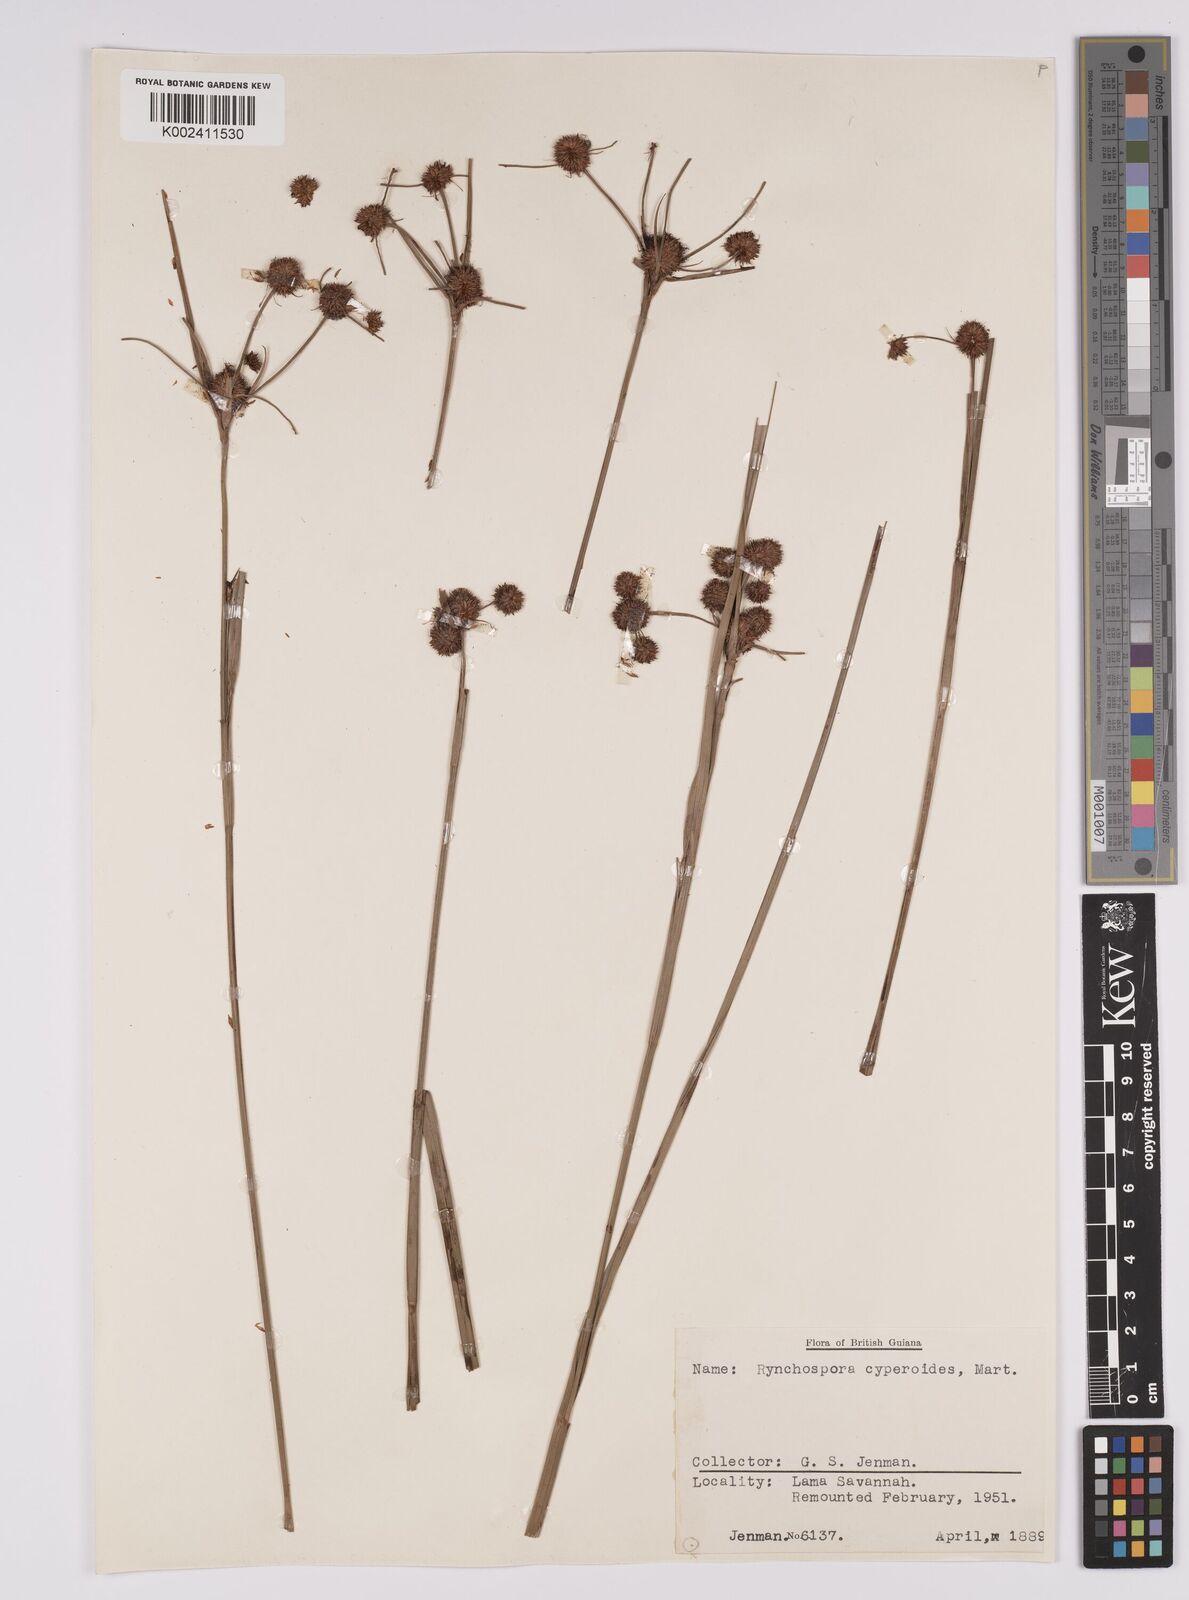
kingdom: Plantae
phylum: Tracheophyta
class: Liliopsida
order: Poales
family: Cyperaceae
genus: Rhynchospora
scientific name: Rhynchospora holoschoenoides
